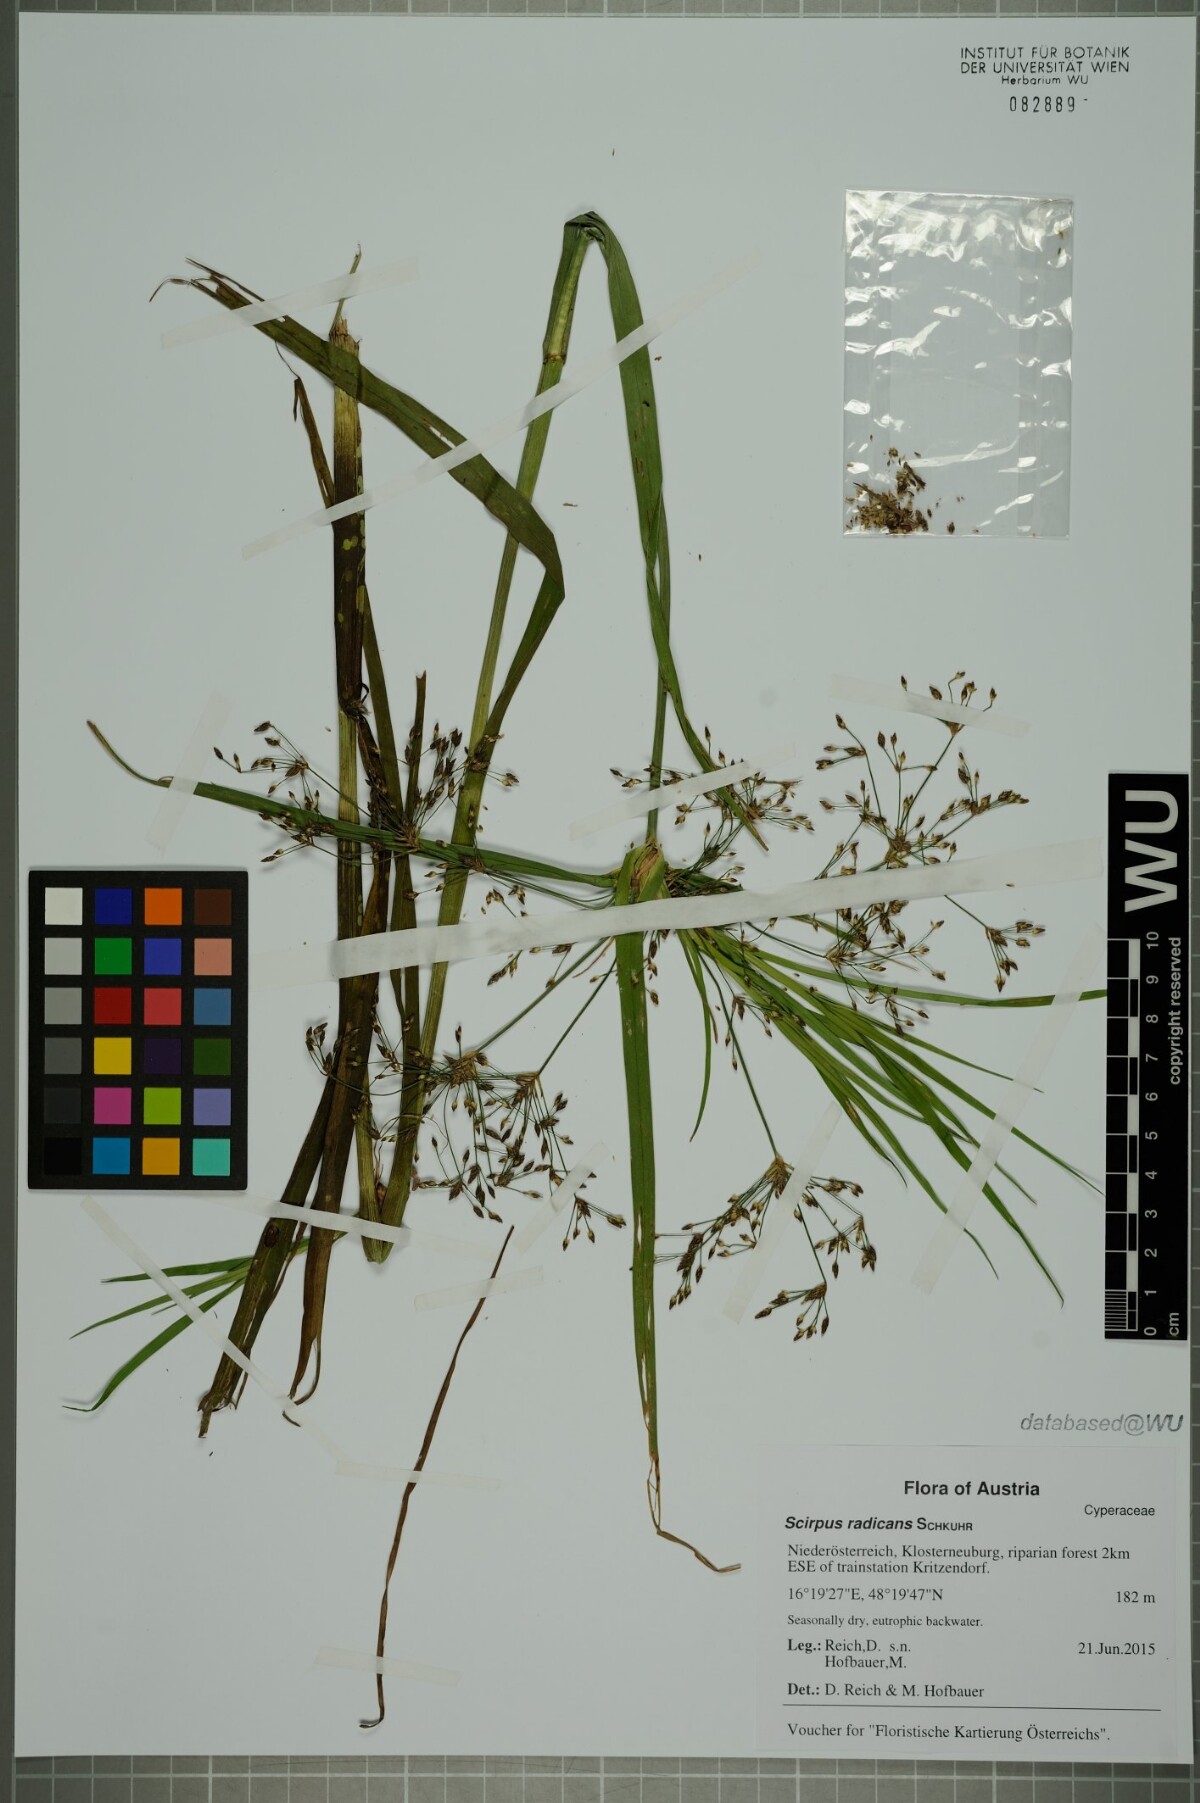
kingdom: Plantae
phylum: Tracheophyta
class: Liliopsida
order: Poales
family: Cyperaceae
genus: Scirpus
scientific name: Scirpus radicans
